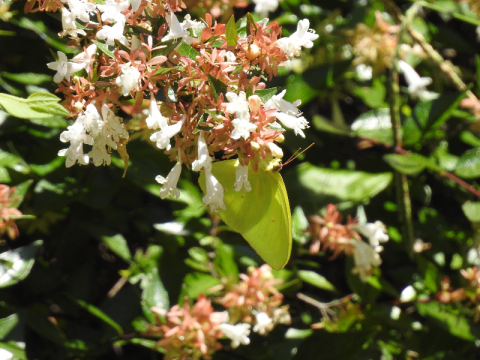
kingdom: Animalia
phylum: Arthropoda
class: Insecta
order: Lepidoptera
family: Pieridae
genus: Phoebis
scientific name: Phoebis sennae
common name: Cloudless Sulphur
